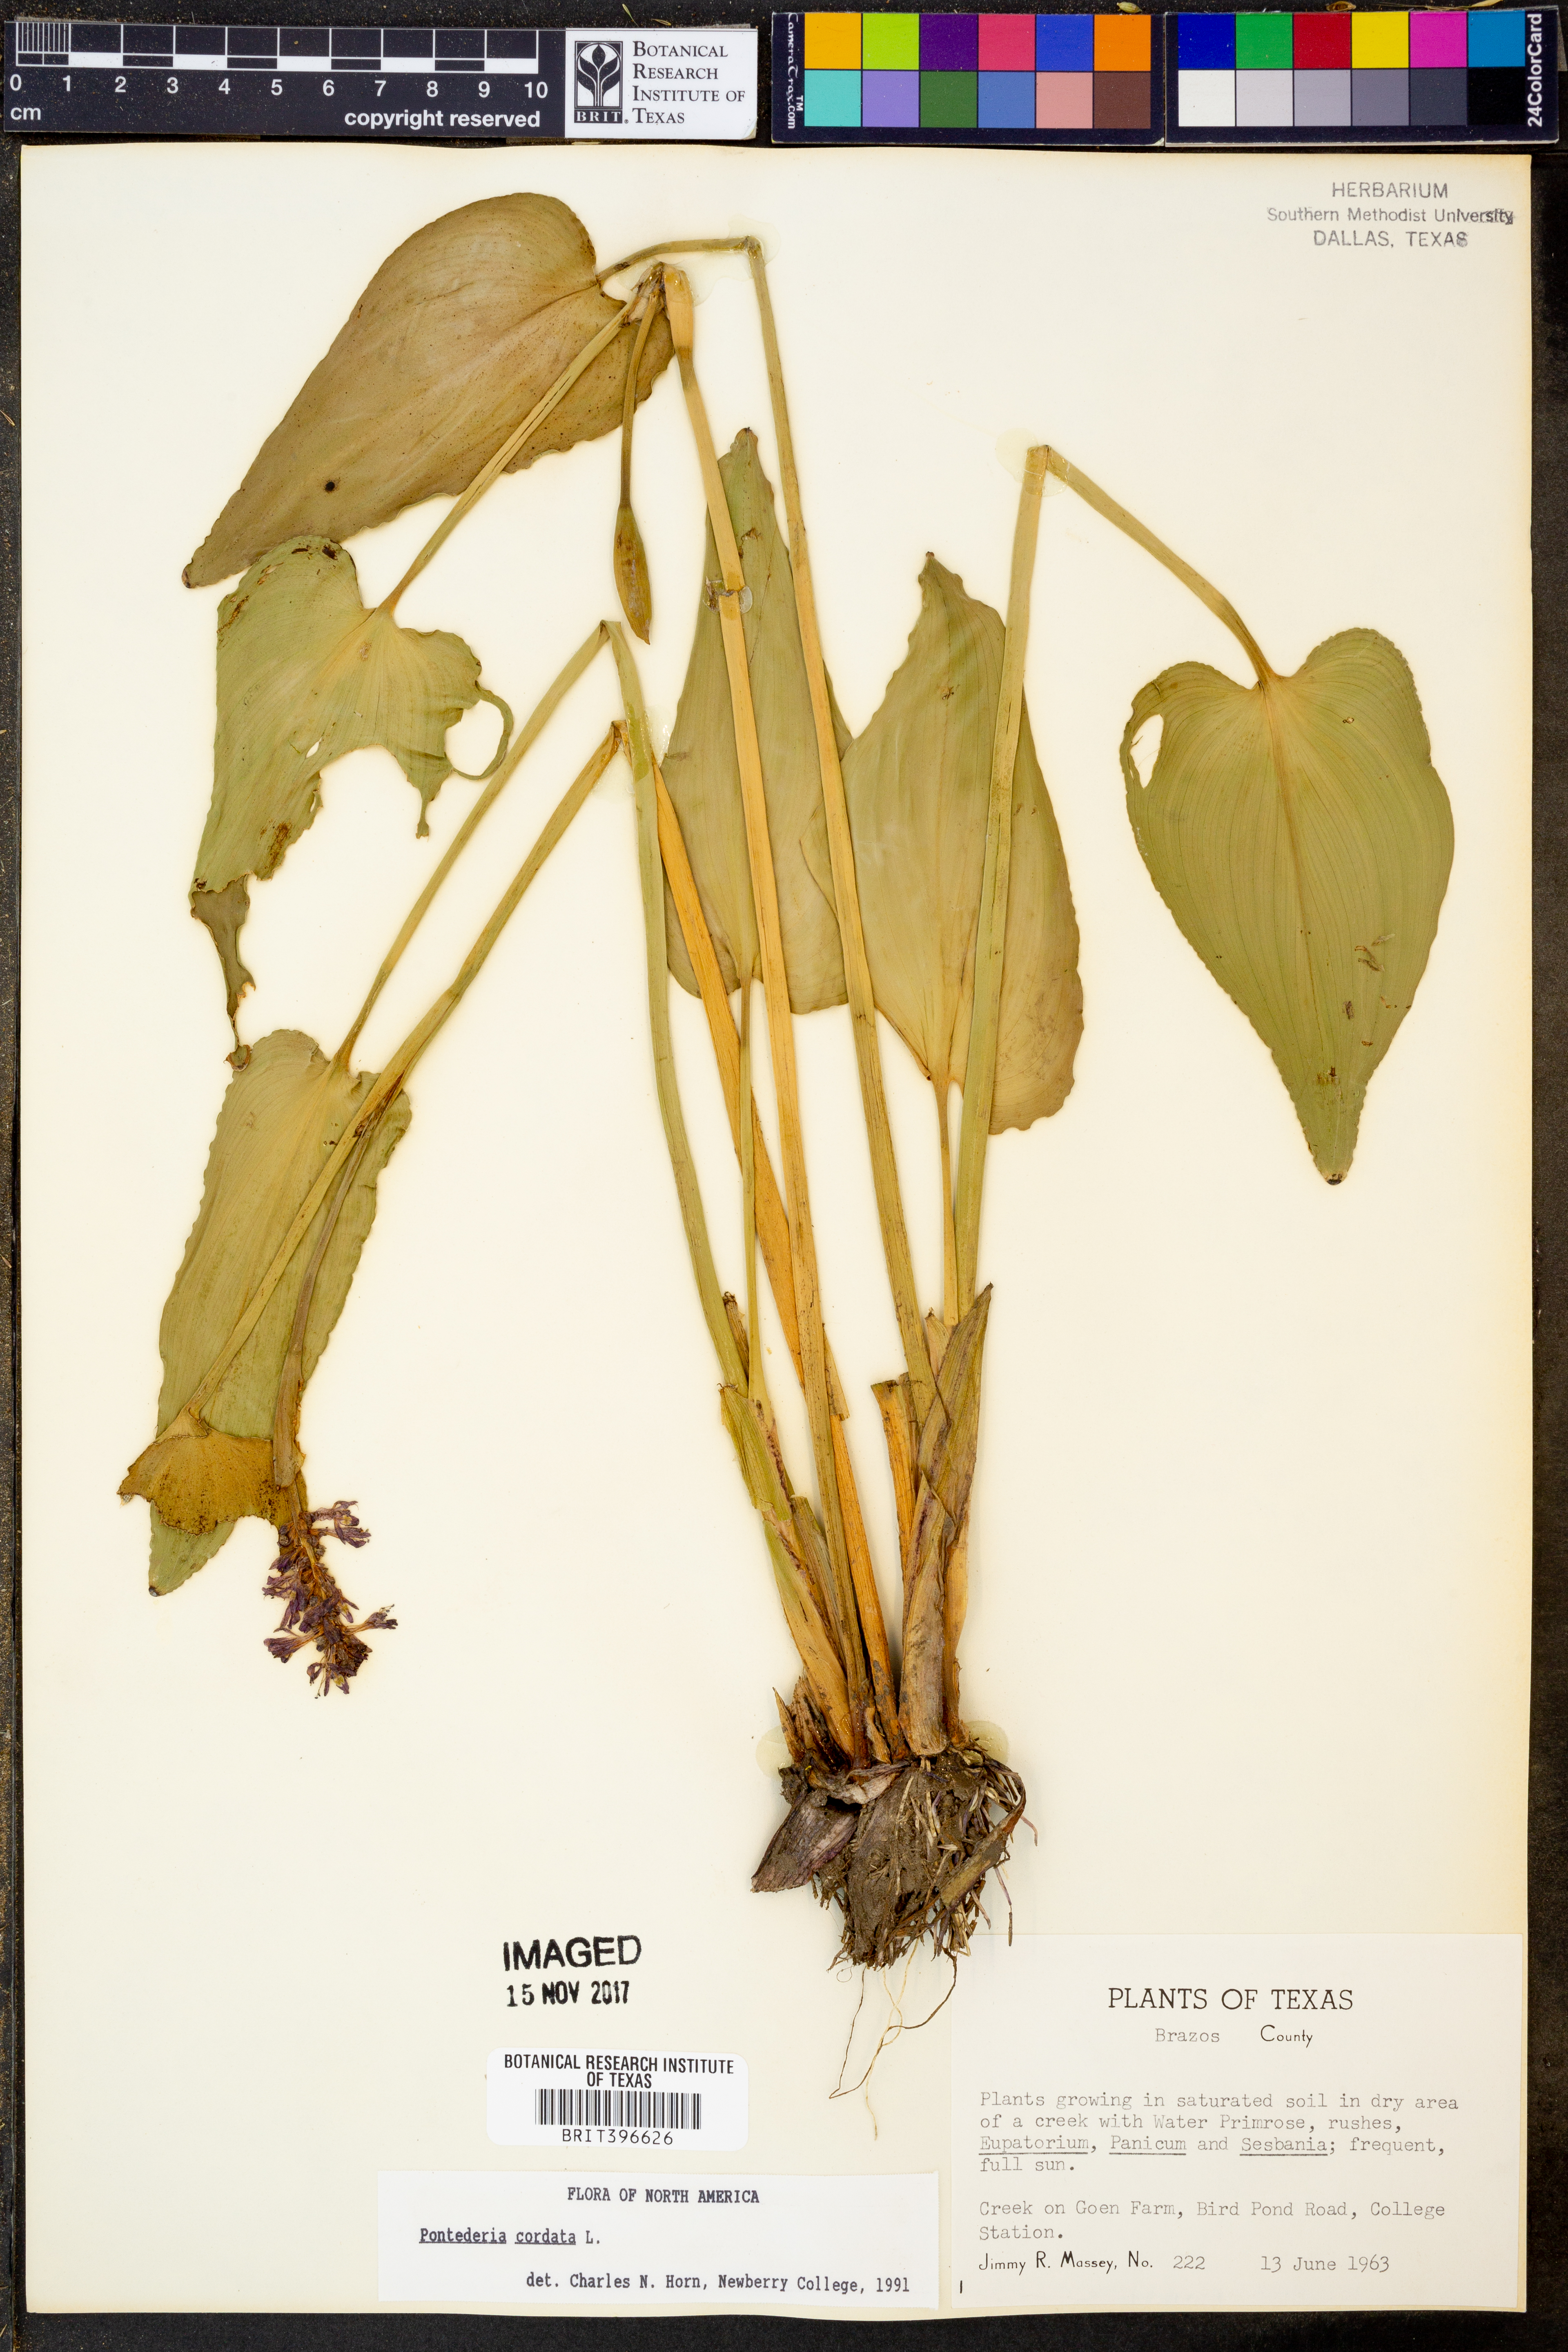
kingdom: Plantae
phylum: Tracheophyta
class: Liliopsida
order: Commelinales
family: Pontederiaceae
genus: Pontederia
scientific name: Pontederia cordata
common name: Pickerelweed
